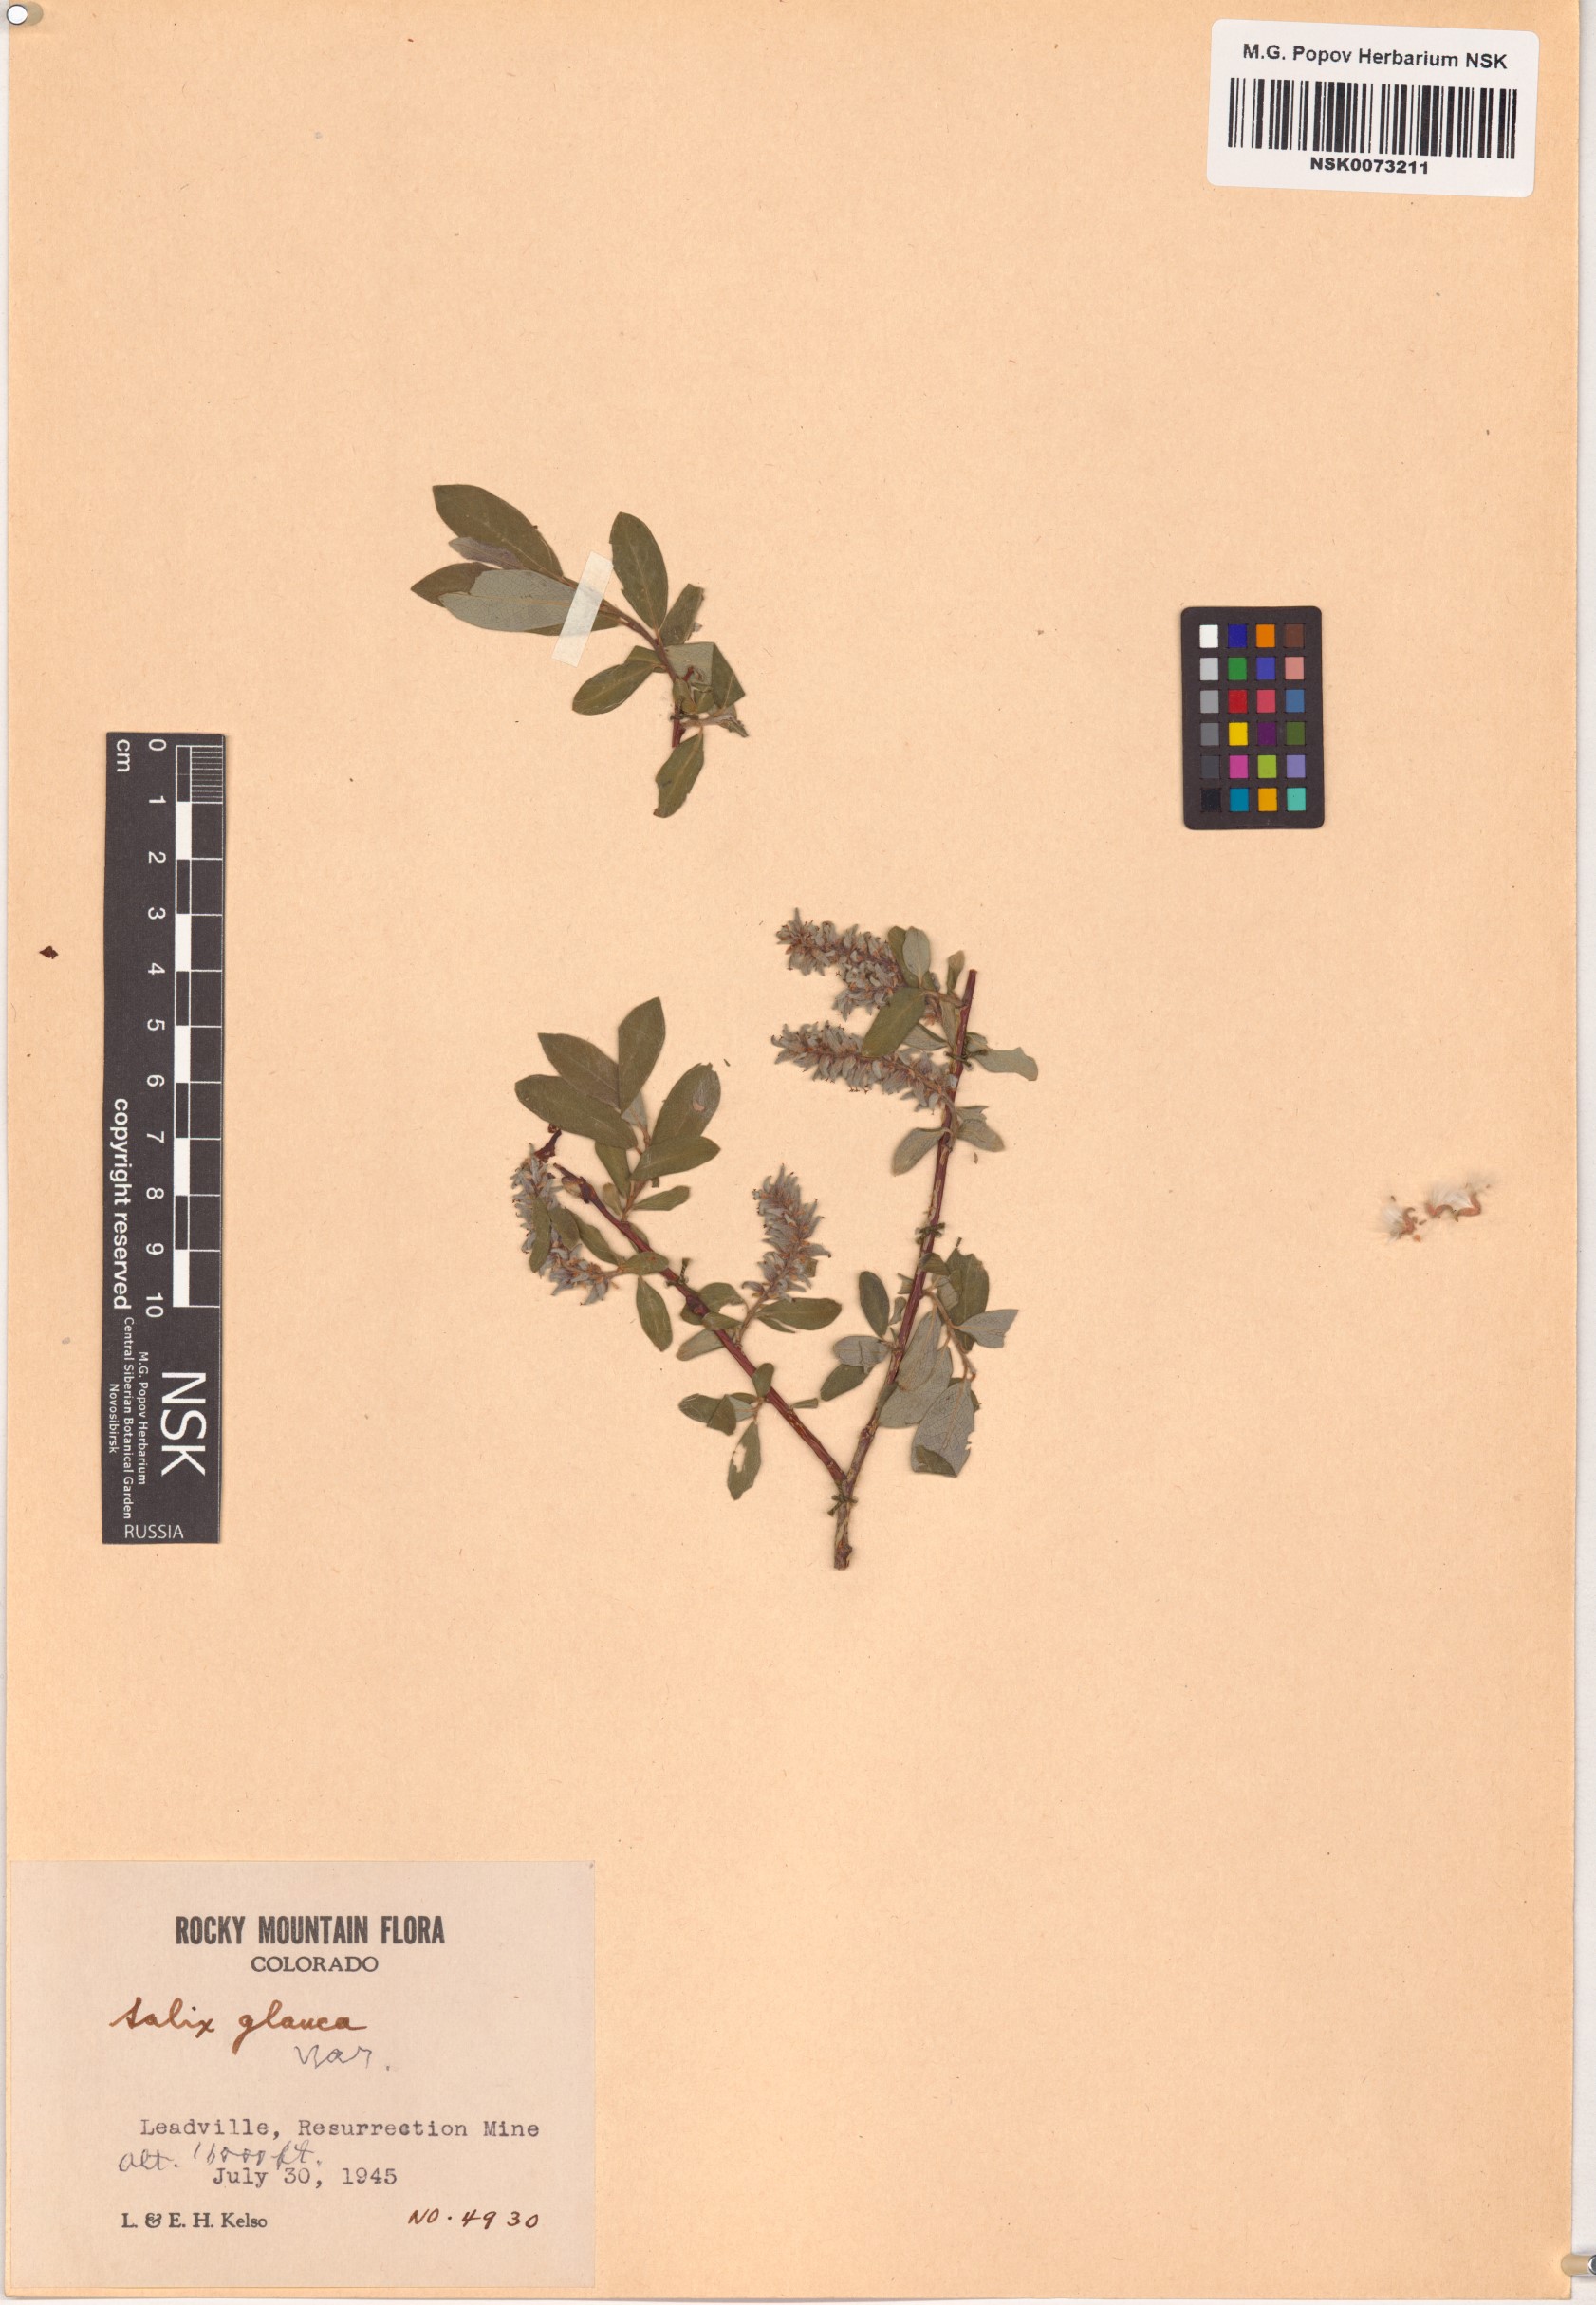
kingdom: Plantae
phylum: Tracheophyta
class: Magnoliopsida
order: Malpighiales
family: Salicaceae
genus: Salix
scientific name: Salix glauca
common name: Glaucous willow
